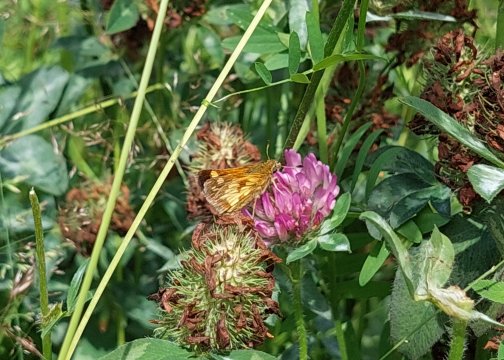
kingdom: Animalia
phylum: Arthropoda
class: Insecta
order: Lepidoptera
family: Hesperiidae
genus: Polites
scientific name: Polites coras
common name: Peck's Skipper
